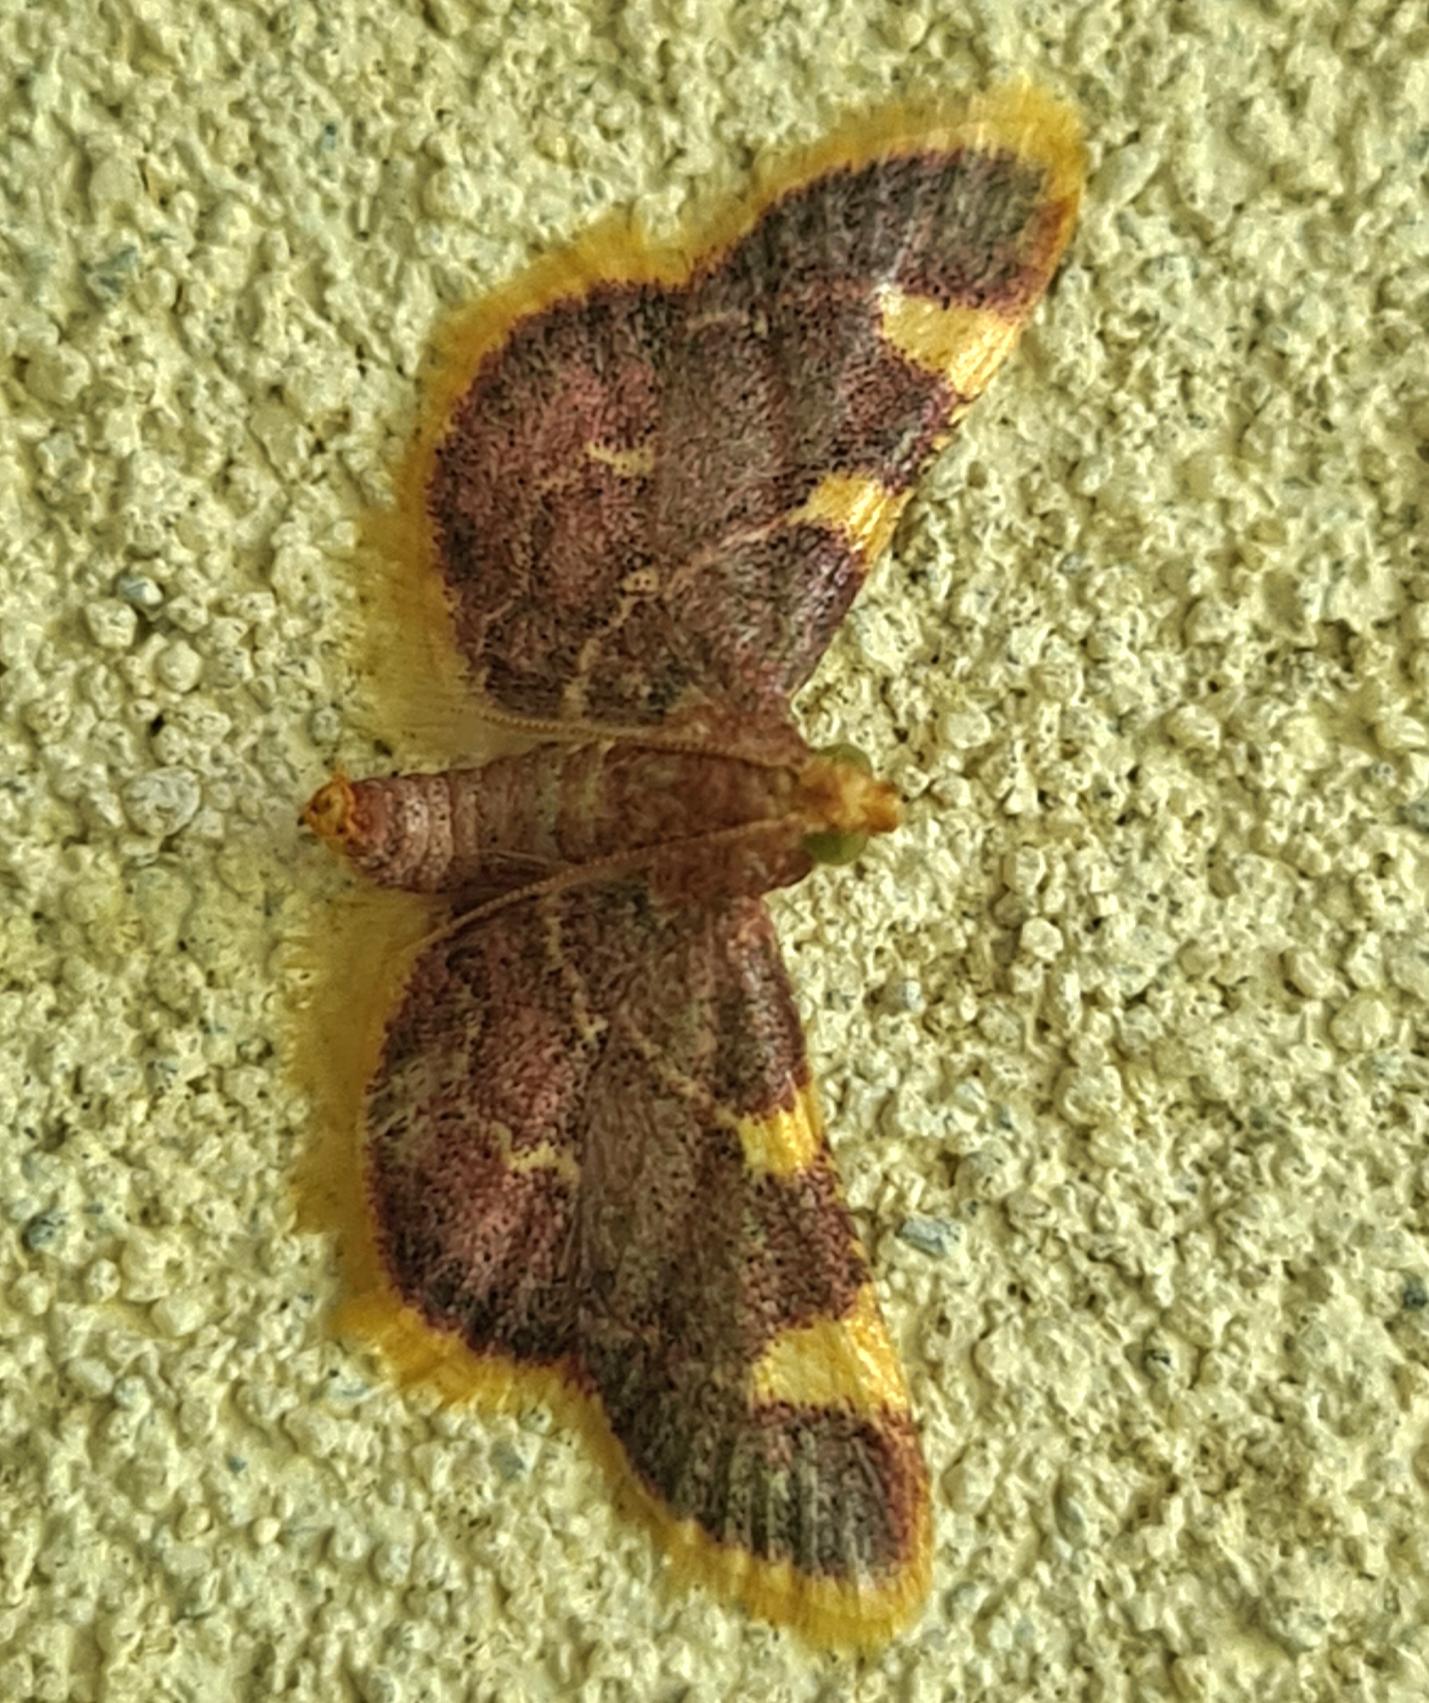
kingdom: Animalia
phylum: Arthropoda
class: Insecta
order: Lepidoptera
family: Pyralidae
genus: Hypsopygia
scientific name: Hypsopygia costalis
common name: Guldfrynset halvmøl
